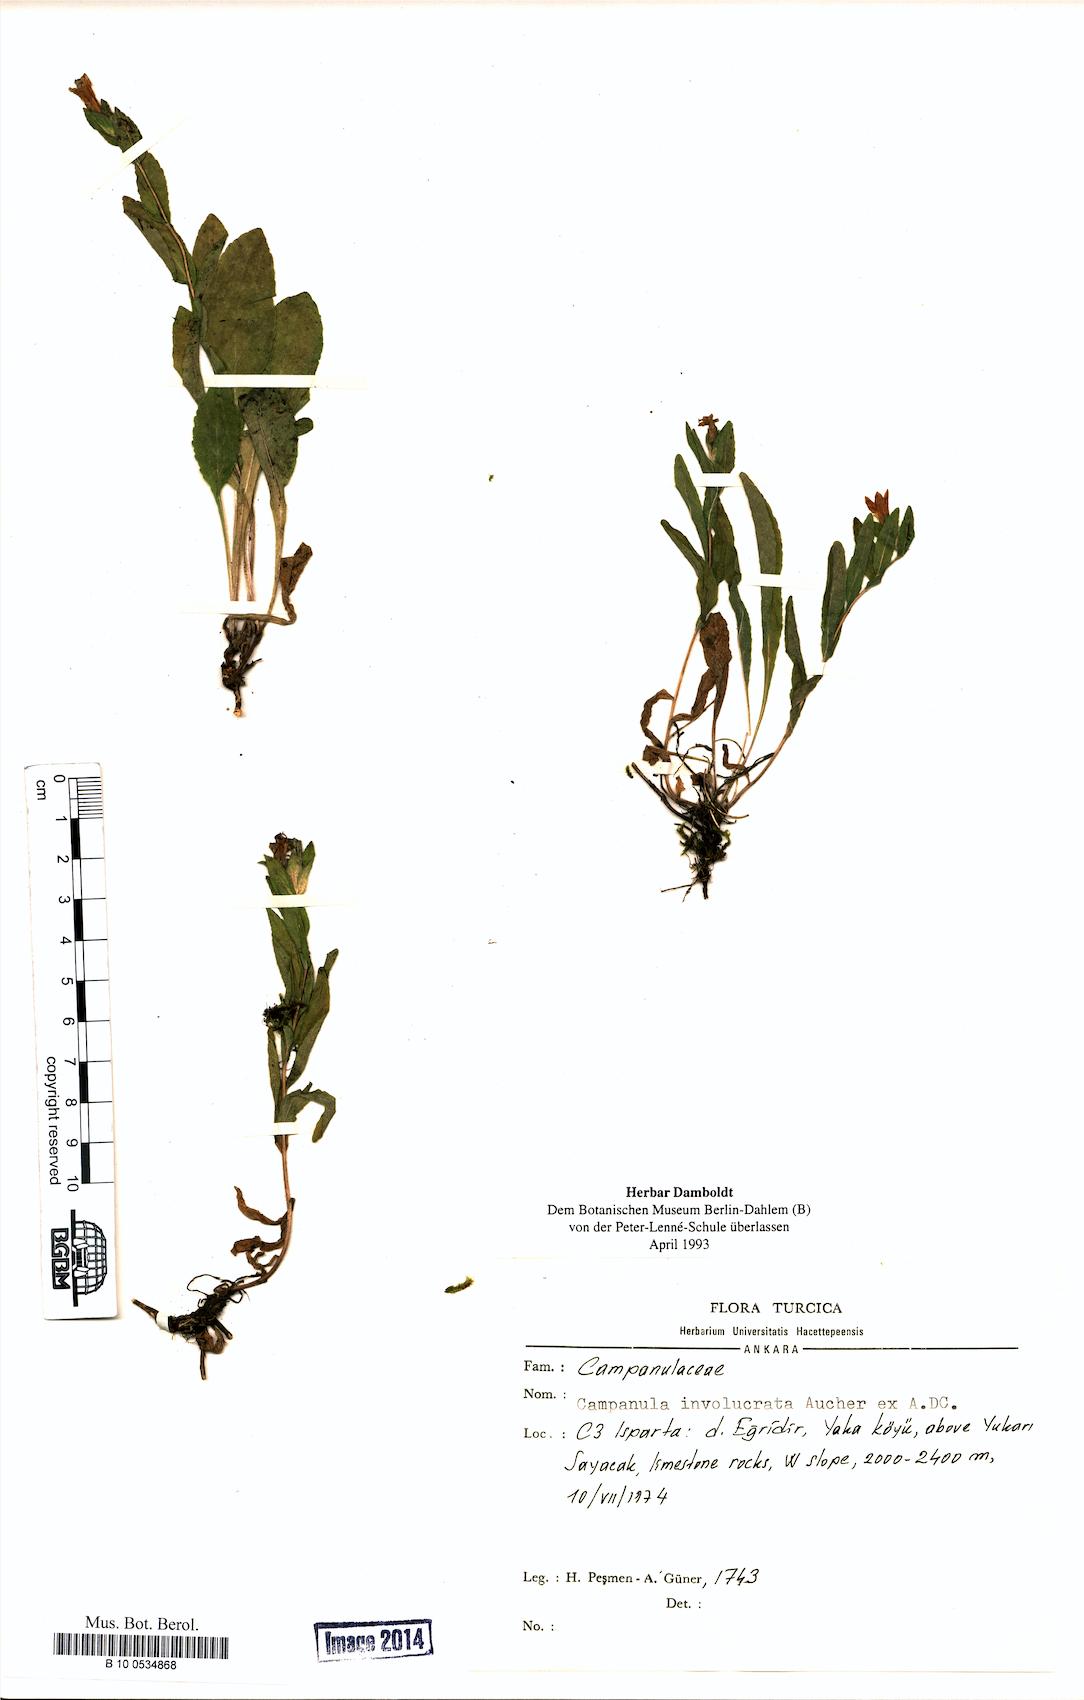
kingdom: Plantae
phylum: Tracheophyta
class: Magnoliopsida
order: Asterales
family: Campanulaceae
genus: Campanula
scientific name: Campanula involucrata
